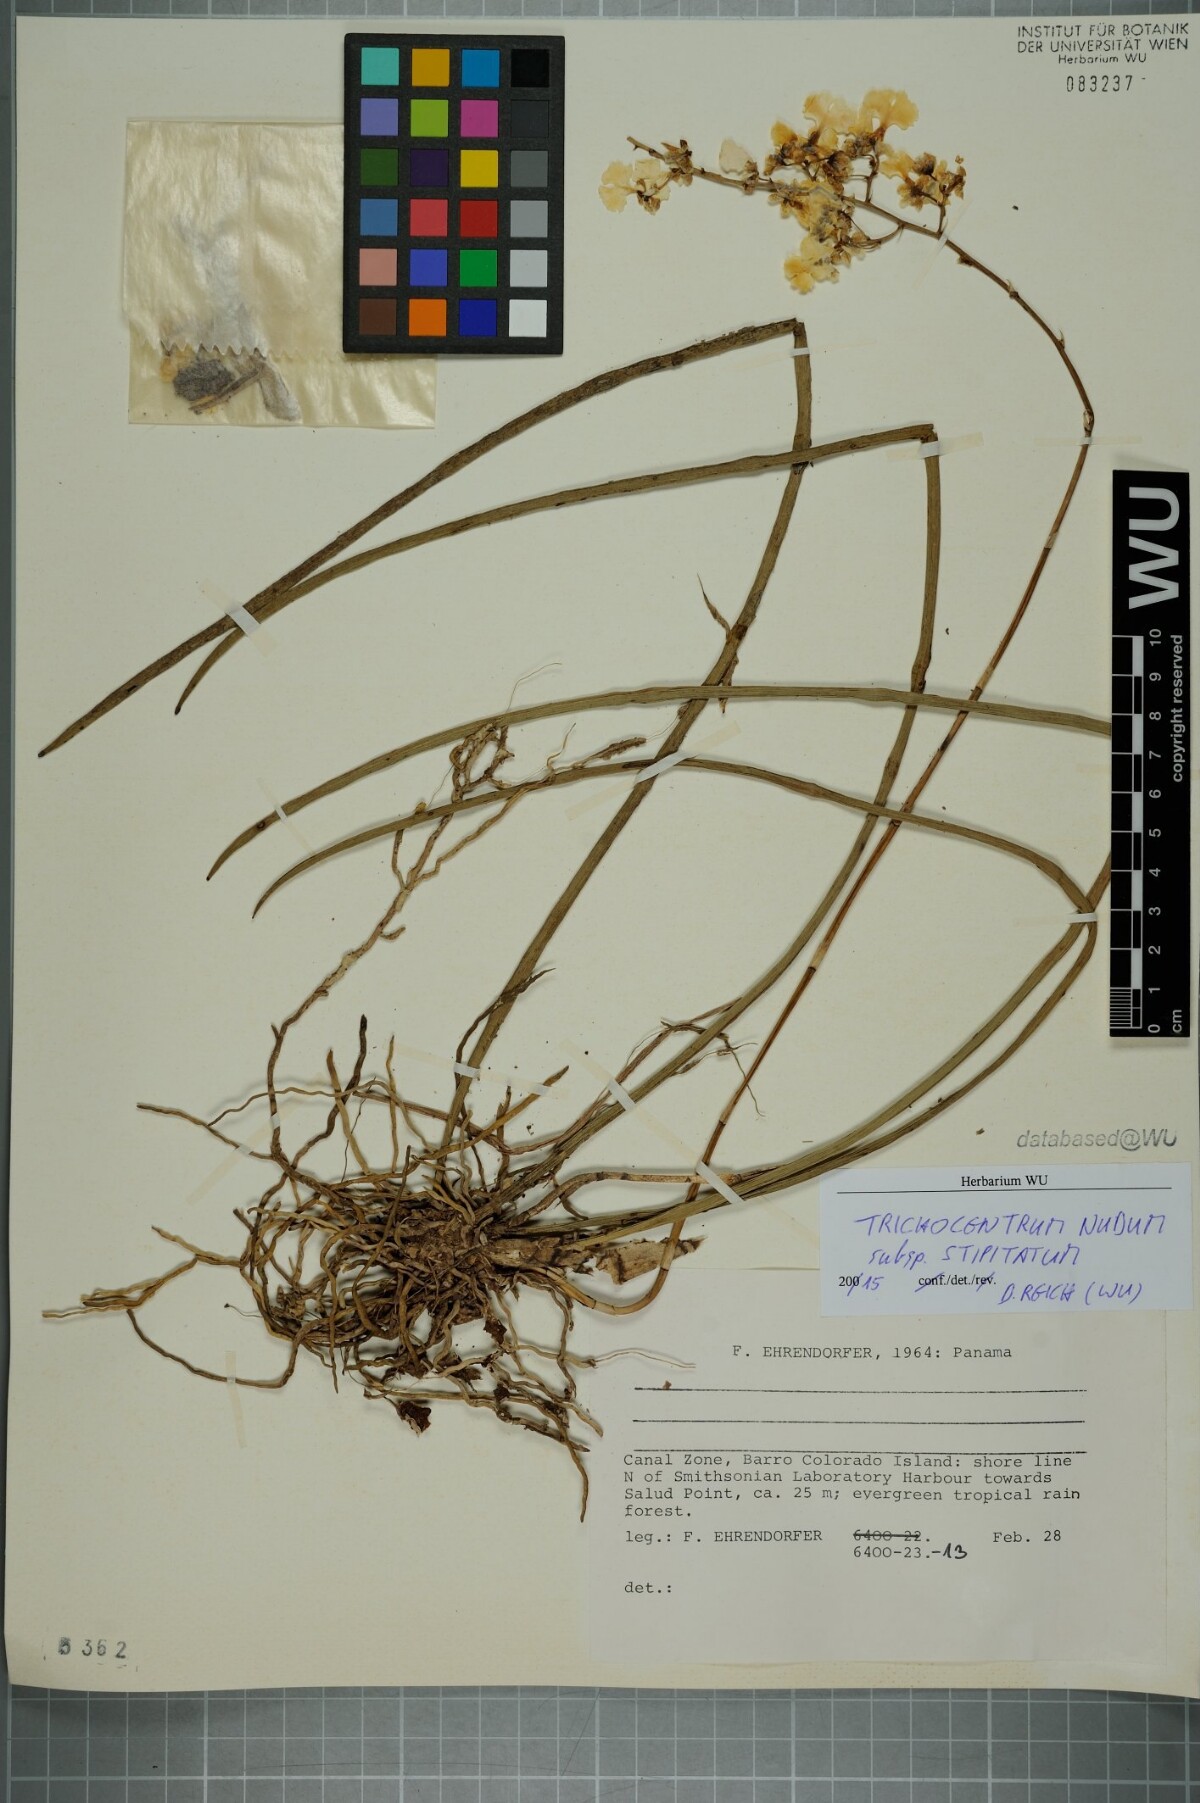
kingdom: Plantae
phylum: Tracheophyta
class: Liliopsida
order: Asparagales
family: Orchidaceae
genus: Trichocentrum
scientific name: Trichocentrum lacerum
